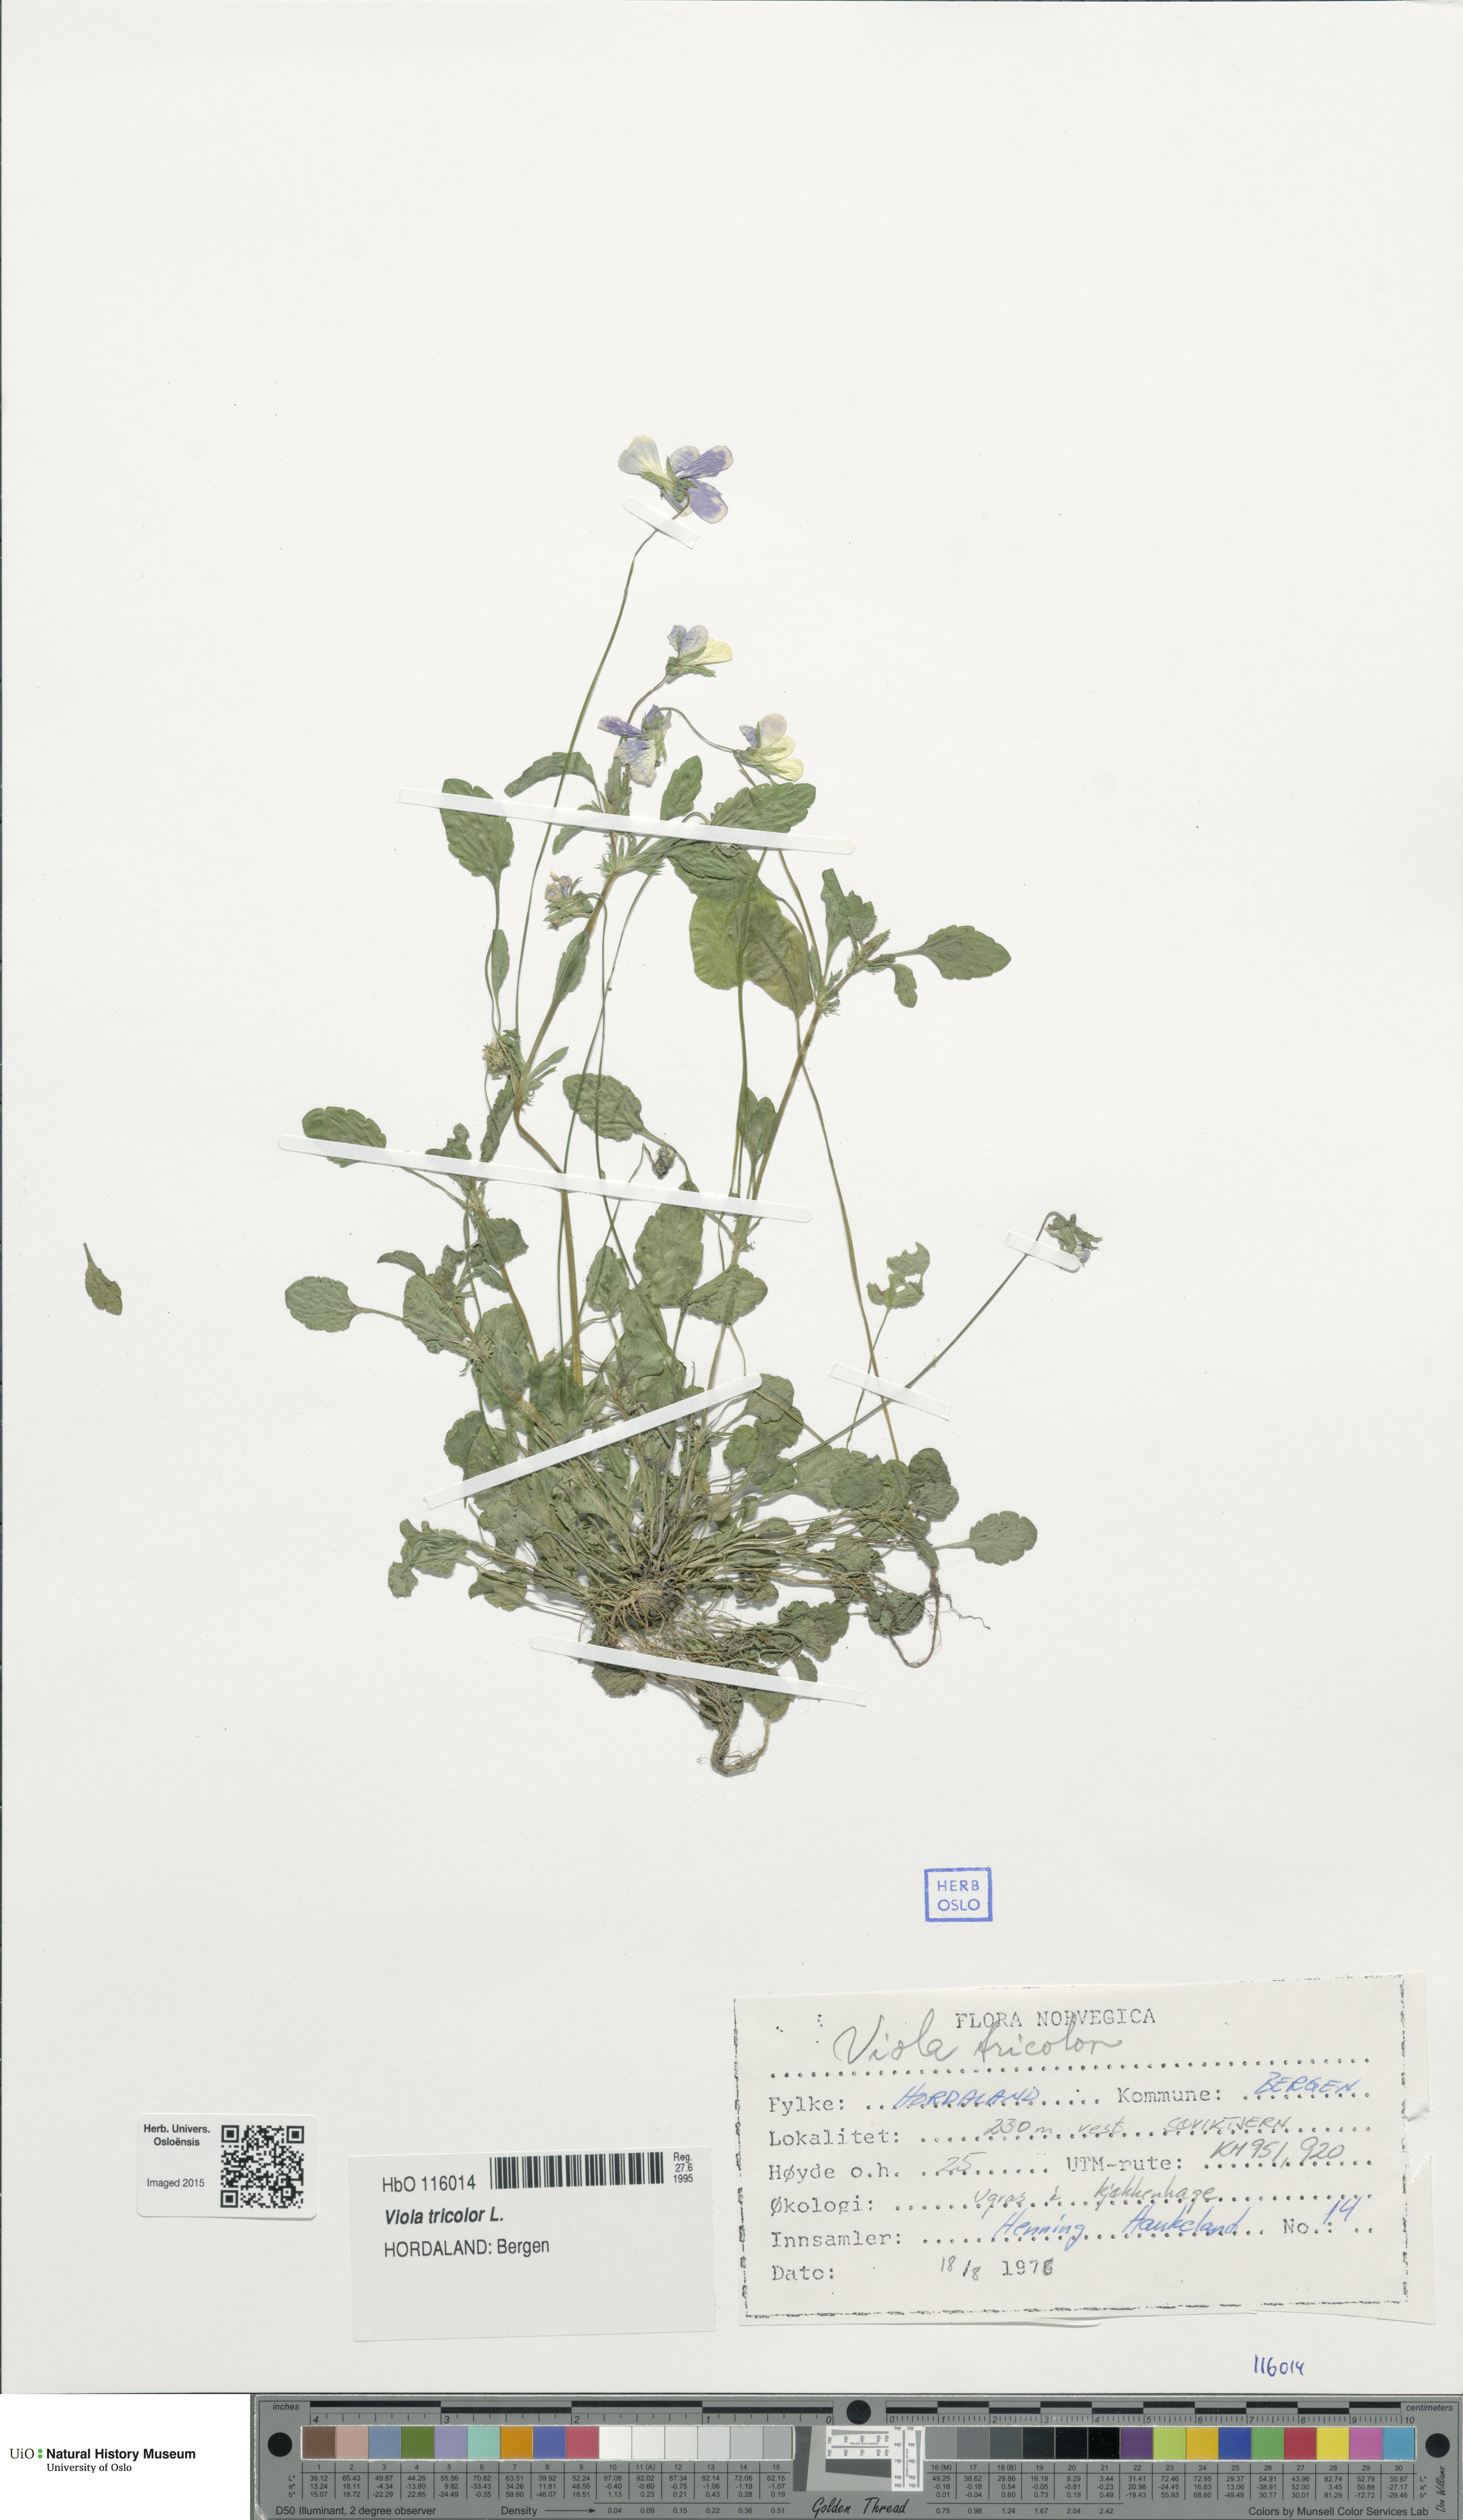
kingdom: Plantae
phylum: Tracheophyta
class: Magnoliopsida
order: Malpighiales
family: Violaceae
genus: Viola
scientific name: Viola tricolor
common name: Pansy
